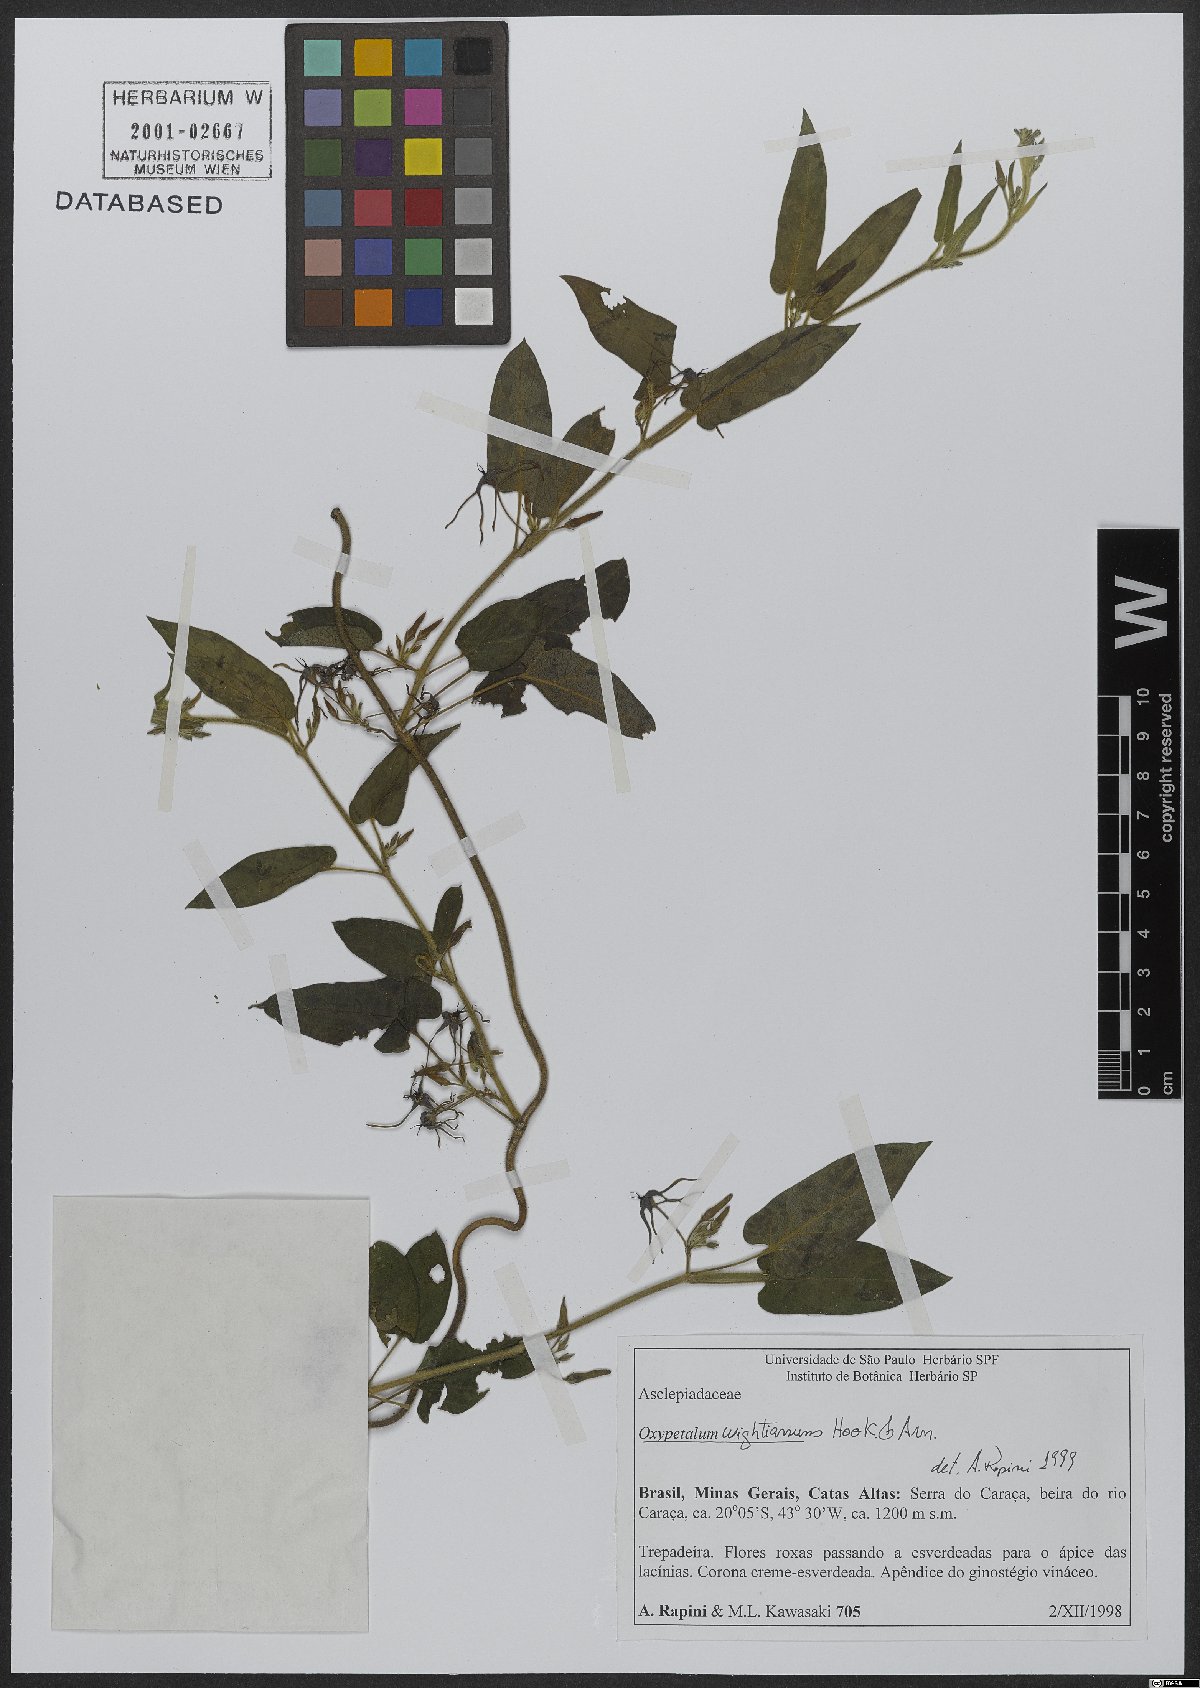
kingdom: Plantae
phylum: Tracheophyta
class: Magnoliopsida
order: Gentianales
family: Apocynaceae
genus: Oxypetalum
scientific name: Oxypetalum wightianum
